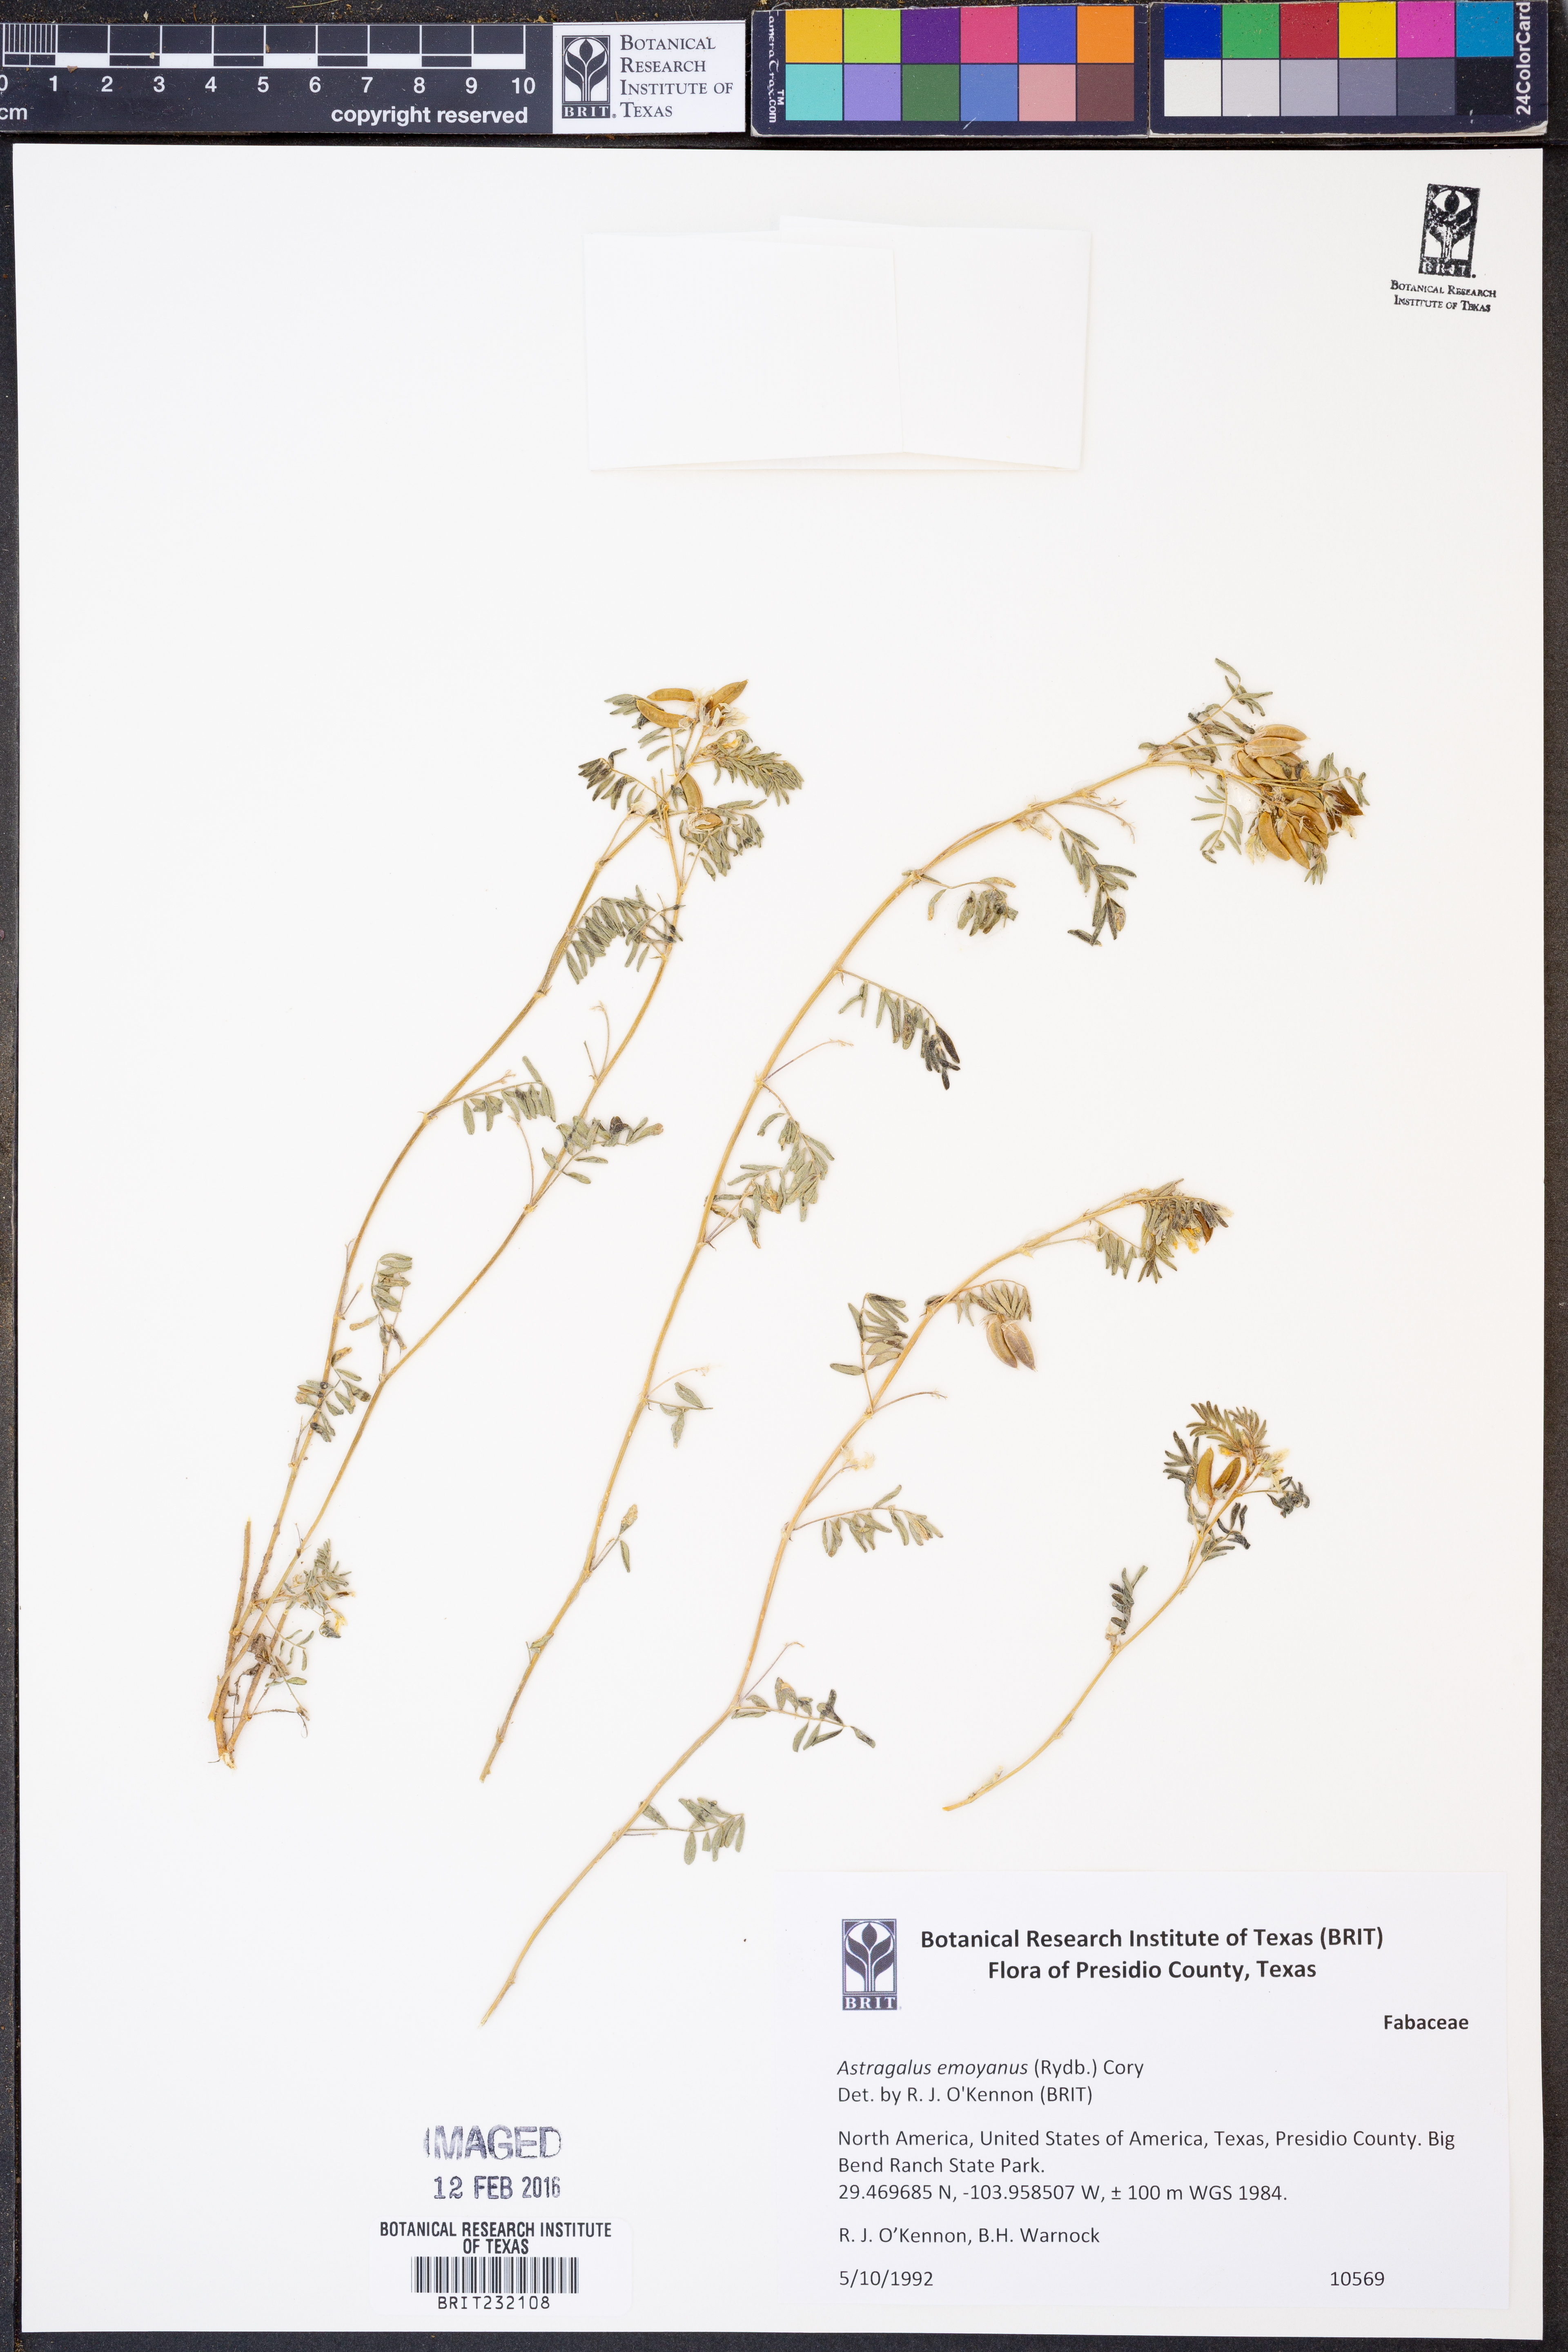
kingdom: Plantae
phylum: Tracheophyta
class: Magnoliopsida
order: Fabales
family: Fabaceae
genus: Astragalus
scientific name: Astragalus emoryanus
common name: Emory's milk-vetch
